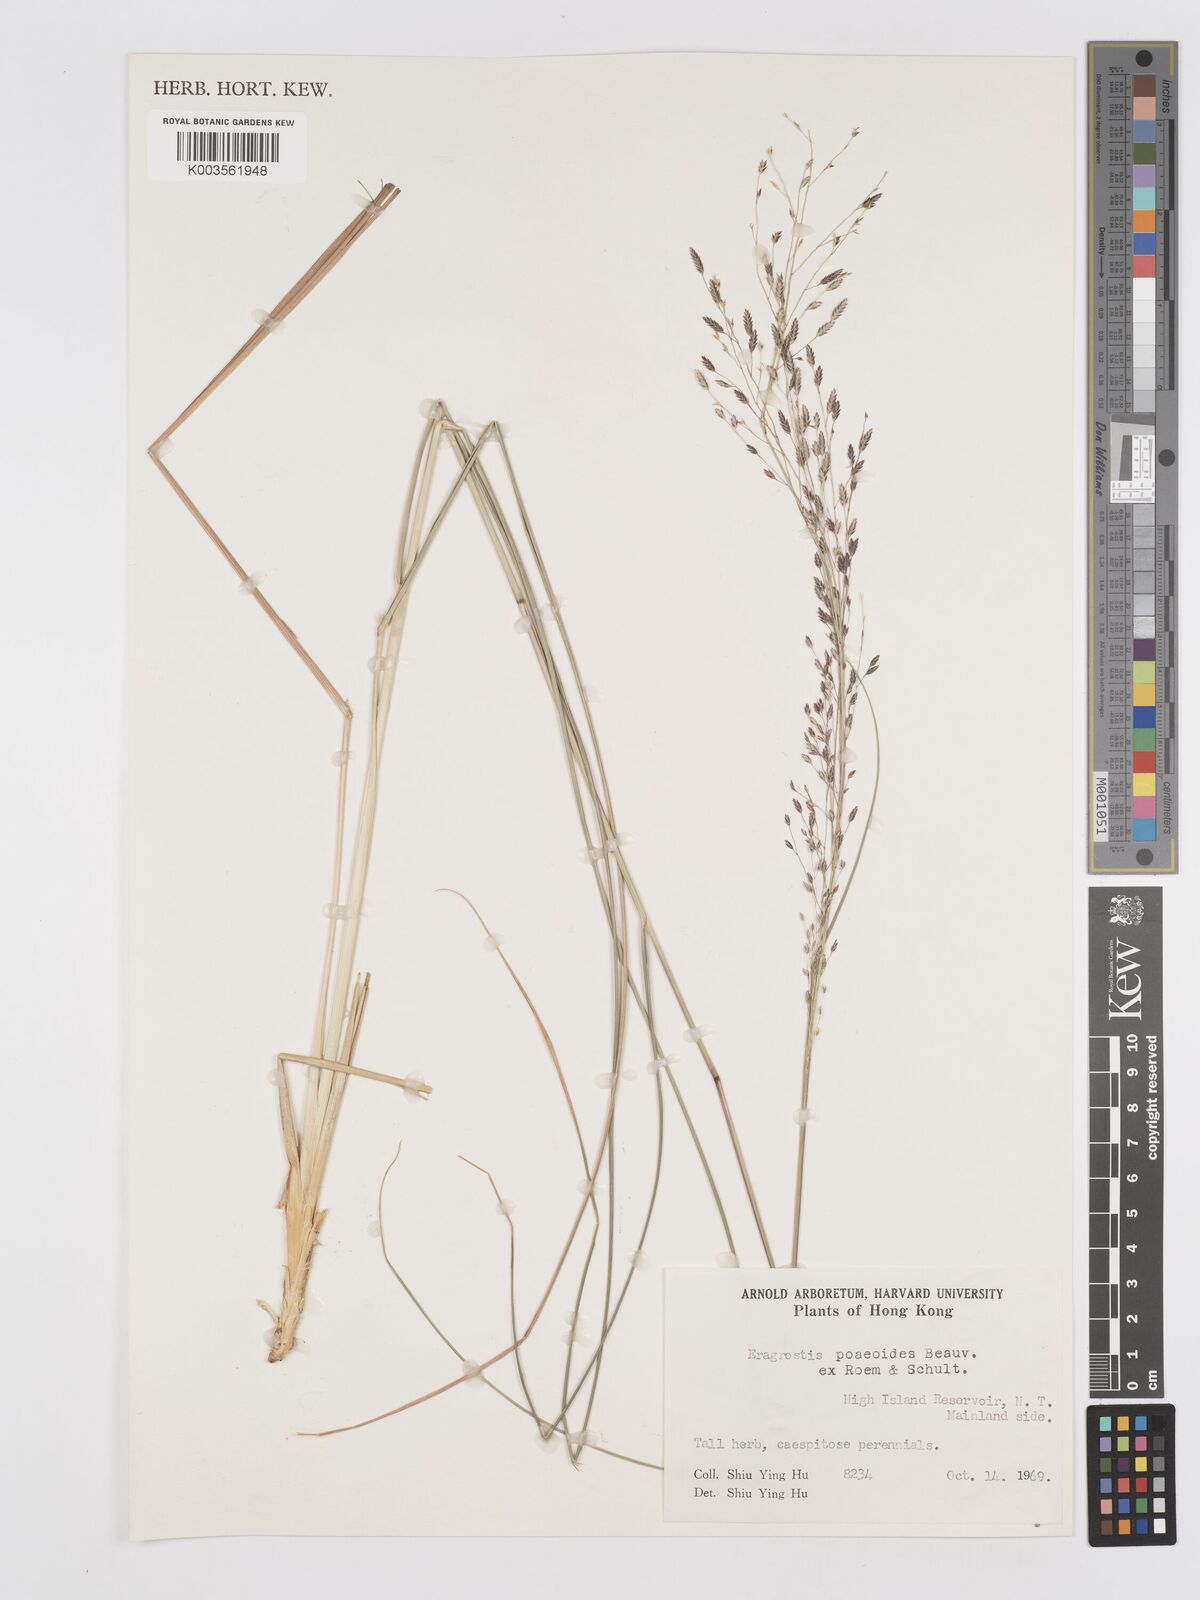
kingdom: Plantae
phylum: Tracheophyta
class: Liliopsida
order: Poales
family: Poaceae
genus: Eragrostis
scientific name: Eragrostis atrovirens
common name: Thalia lovegrass
